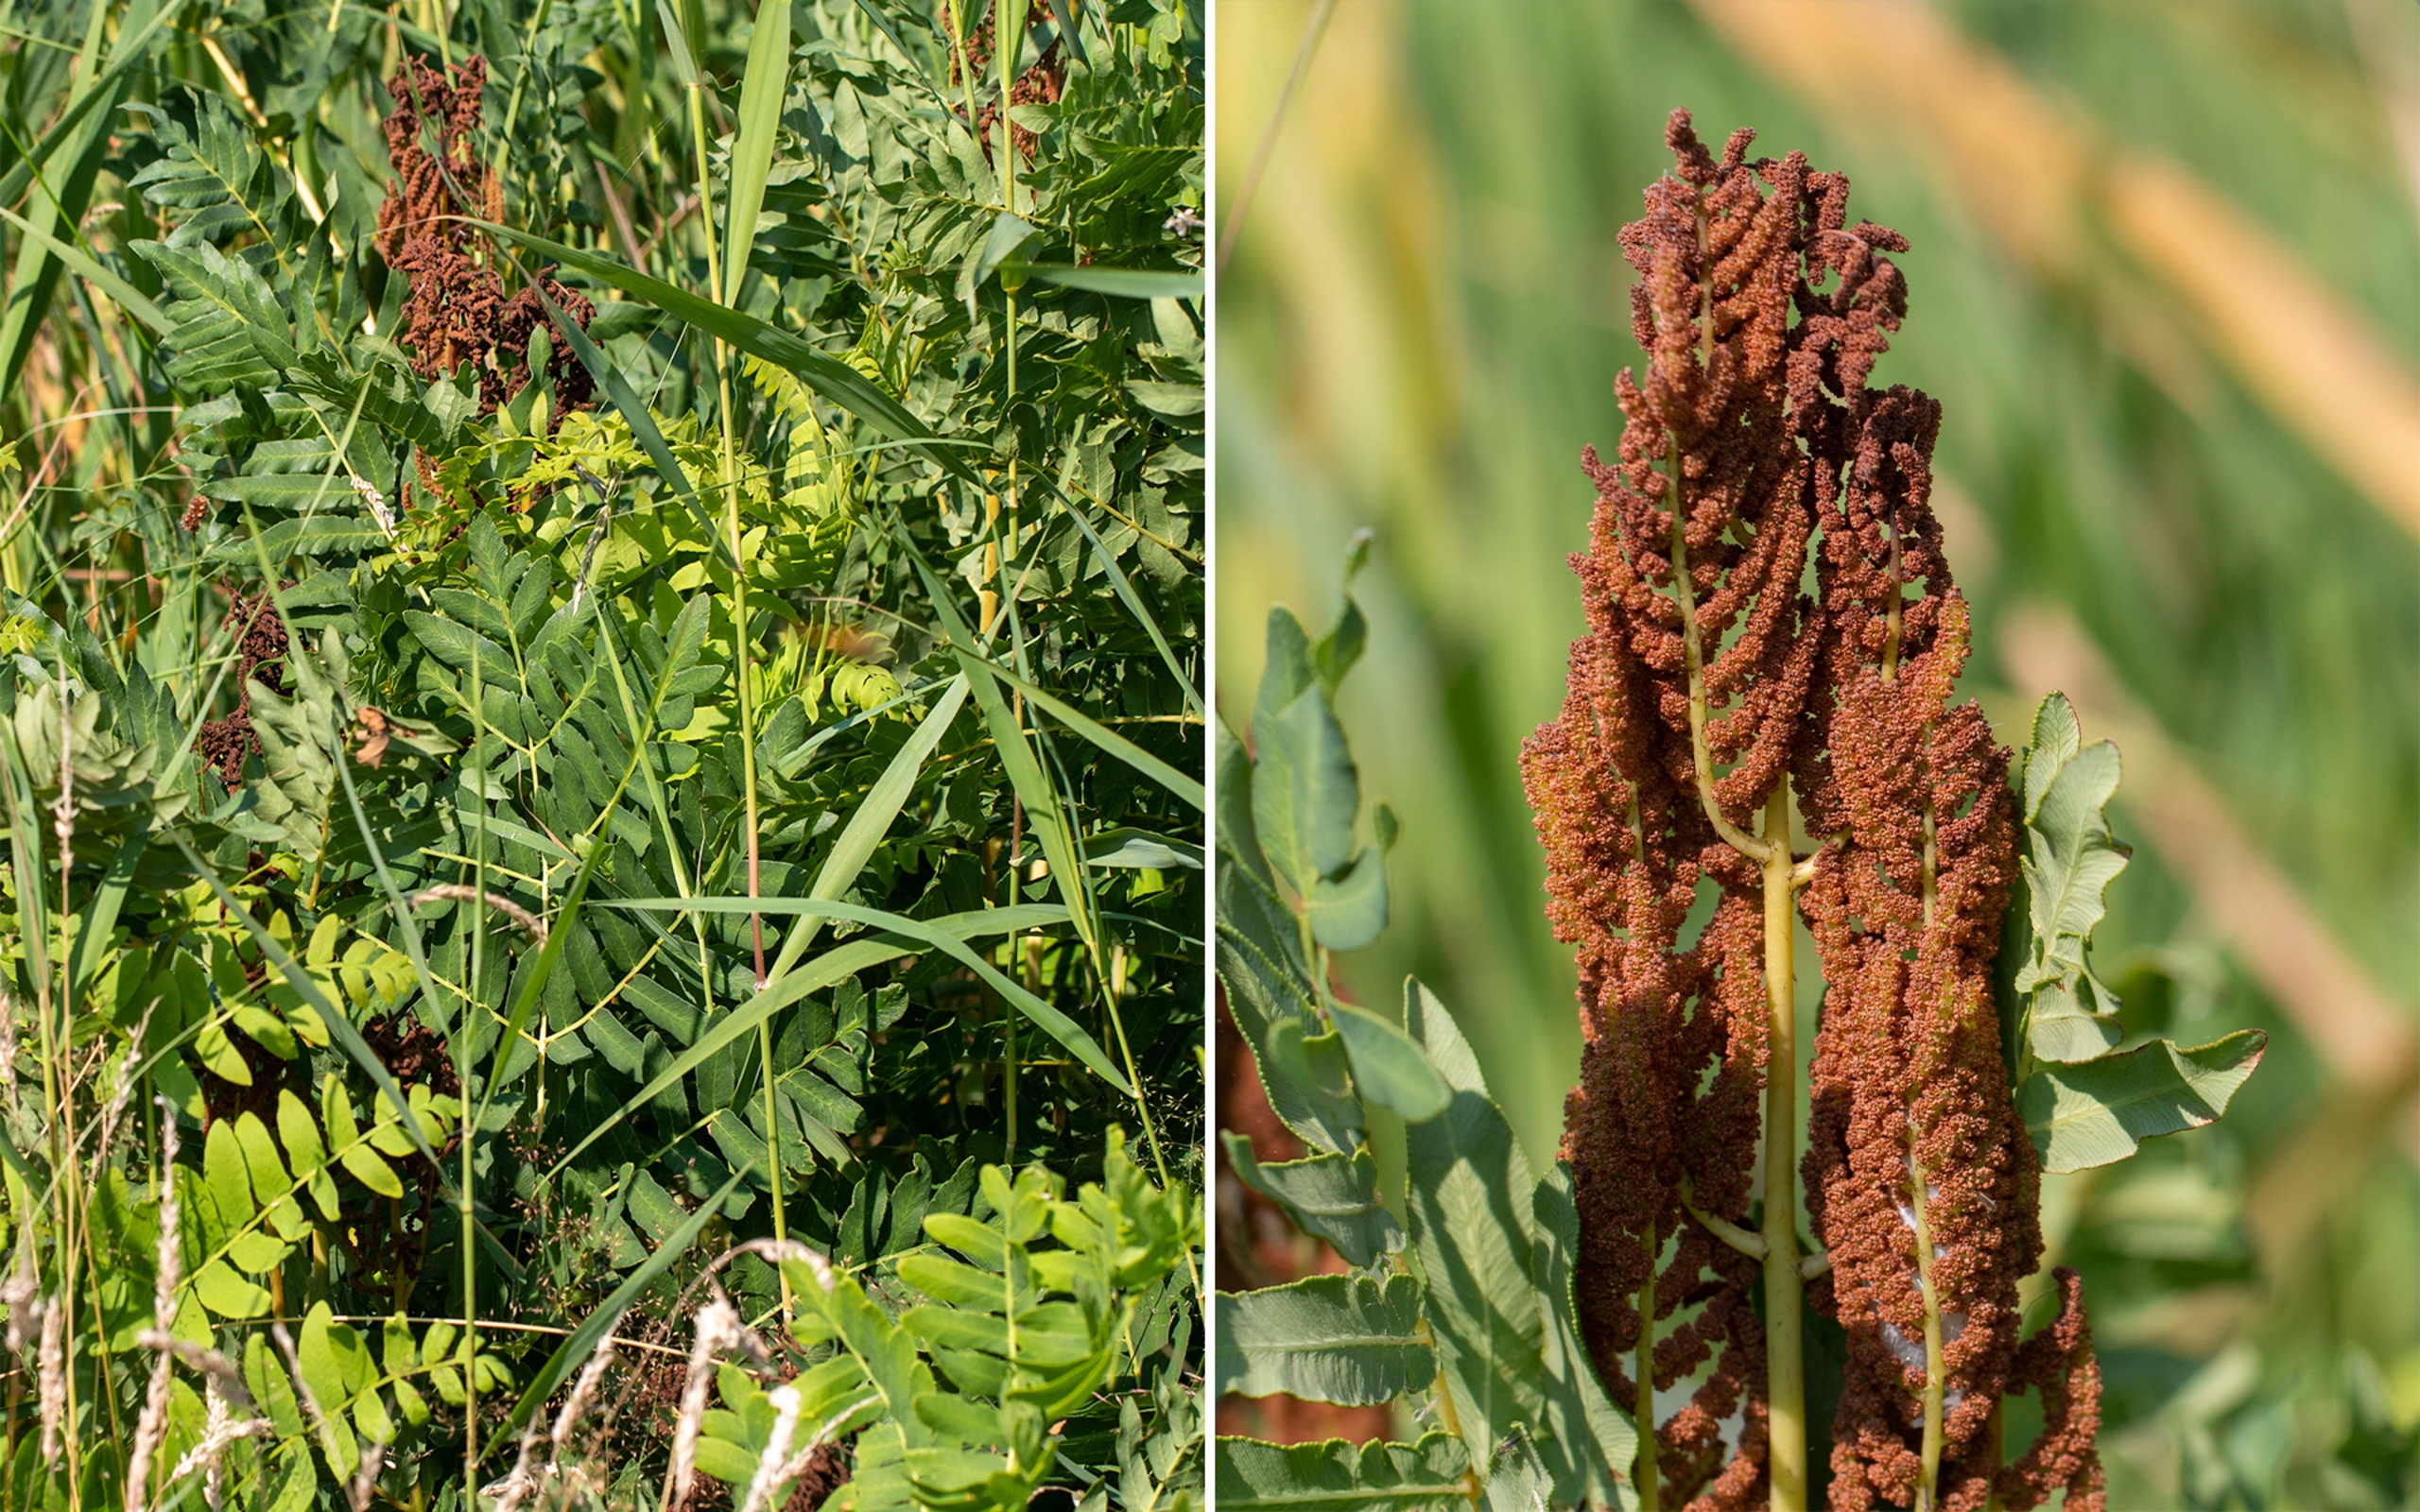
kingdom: Plantae
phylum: Tracheophyta
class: Polypodiopsida
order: Osmundales
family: Osmundaceae
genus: Osmunda
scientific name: Osmunda regalis
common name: Kongebregne
